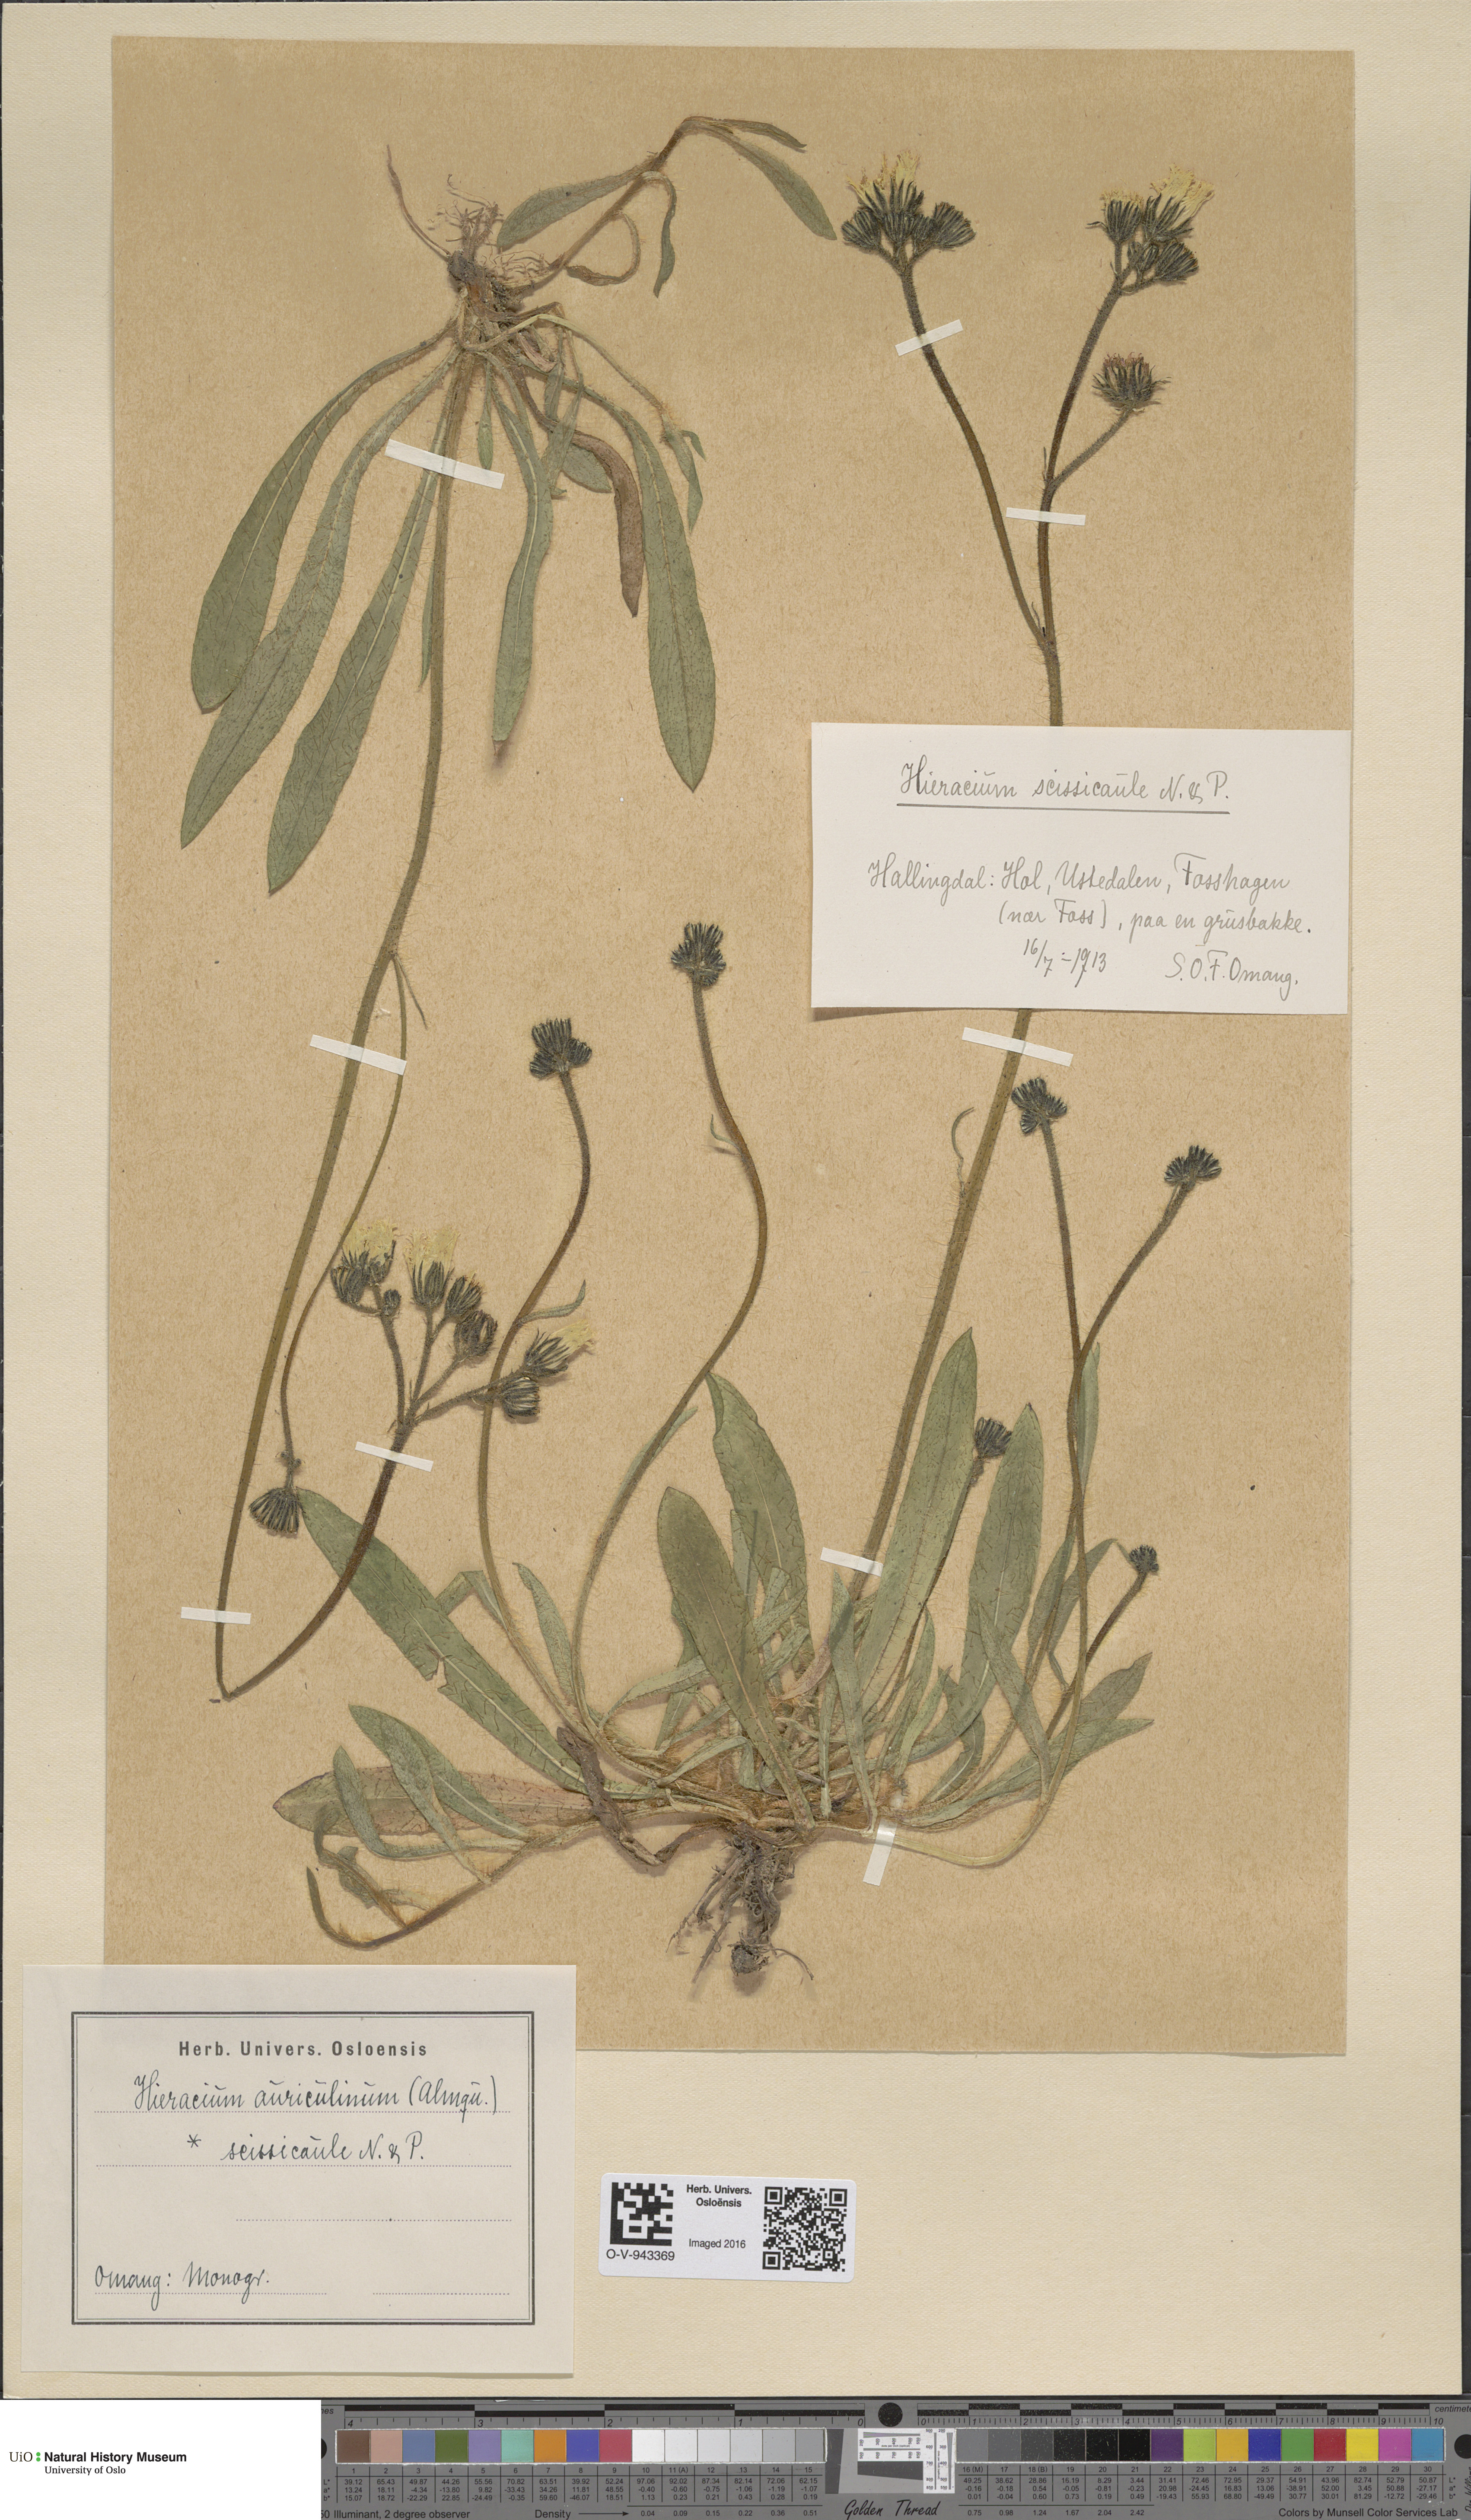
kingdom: Plantae
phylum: Tracheophyta
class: Magnoliopsida
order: Asterales
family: Asteraceae
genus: Pilosella
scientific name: Pilosella dubia
